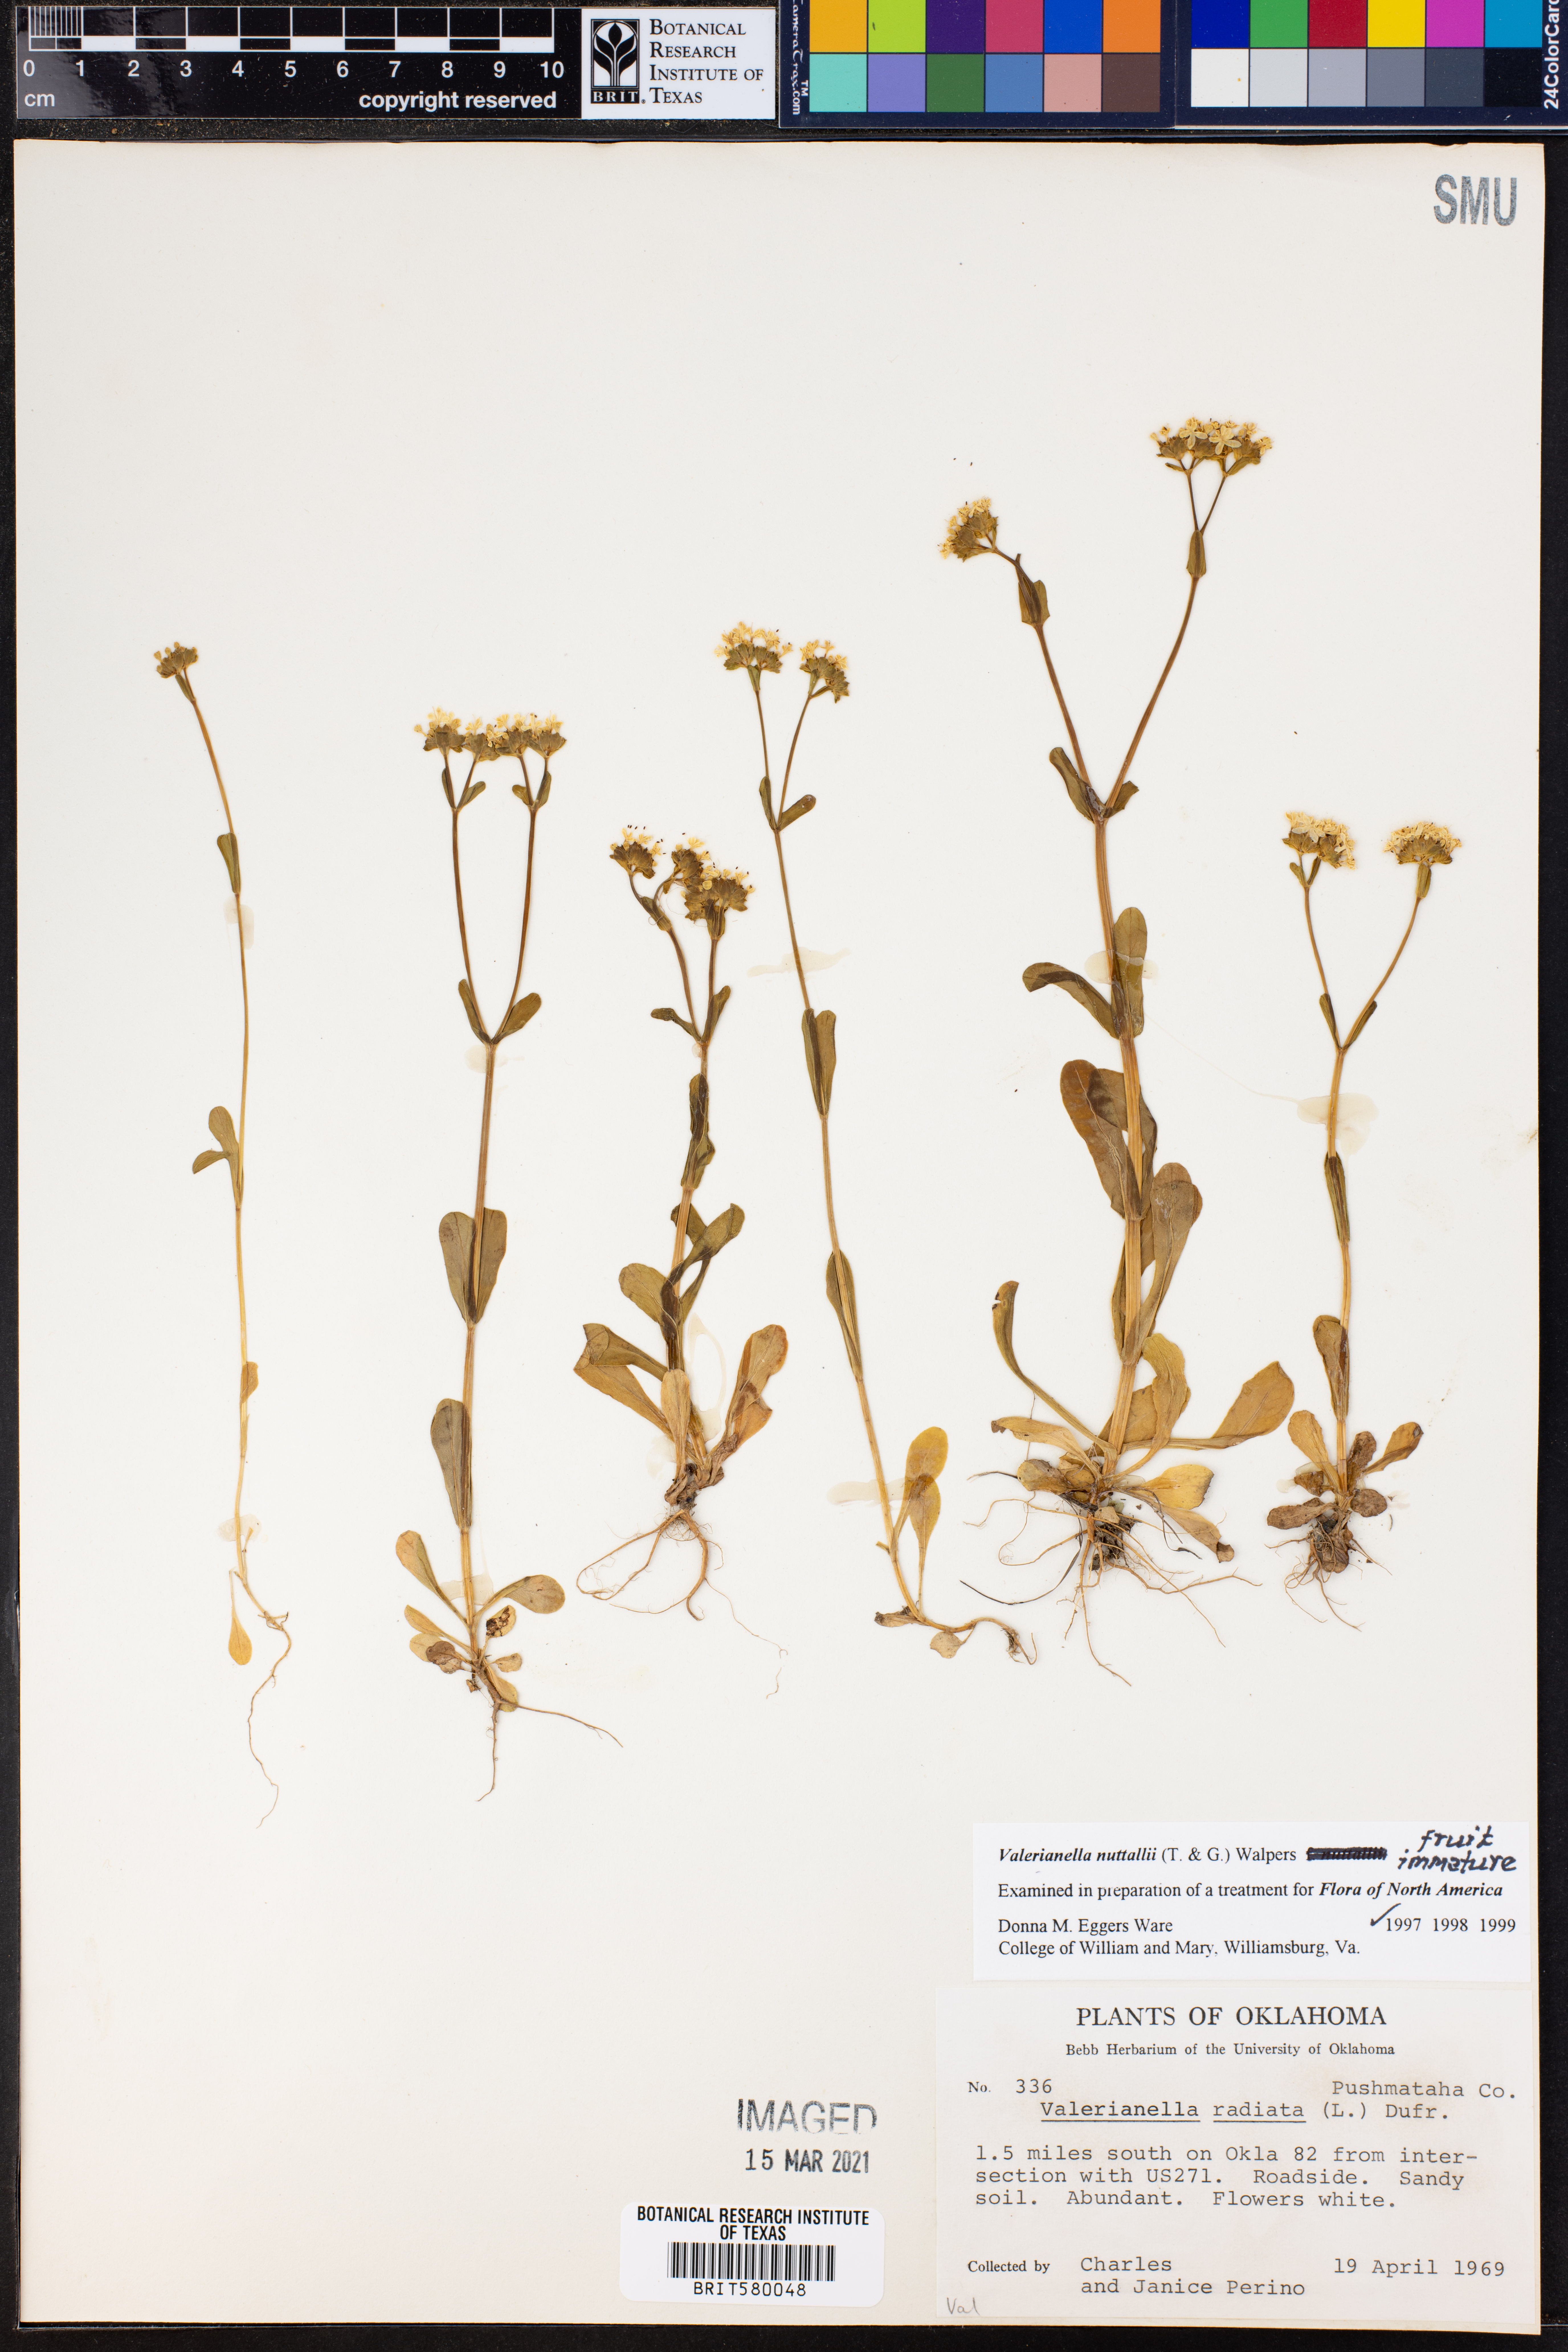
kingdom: Plantae
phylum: Tracheophyta
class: Magnoliopsida
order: Dipsacales
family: Caprifoliaceae
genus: Valerianella
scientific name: Valerianella nuttallii
